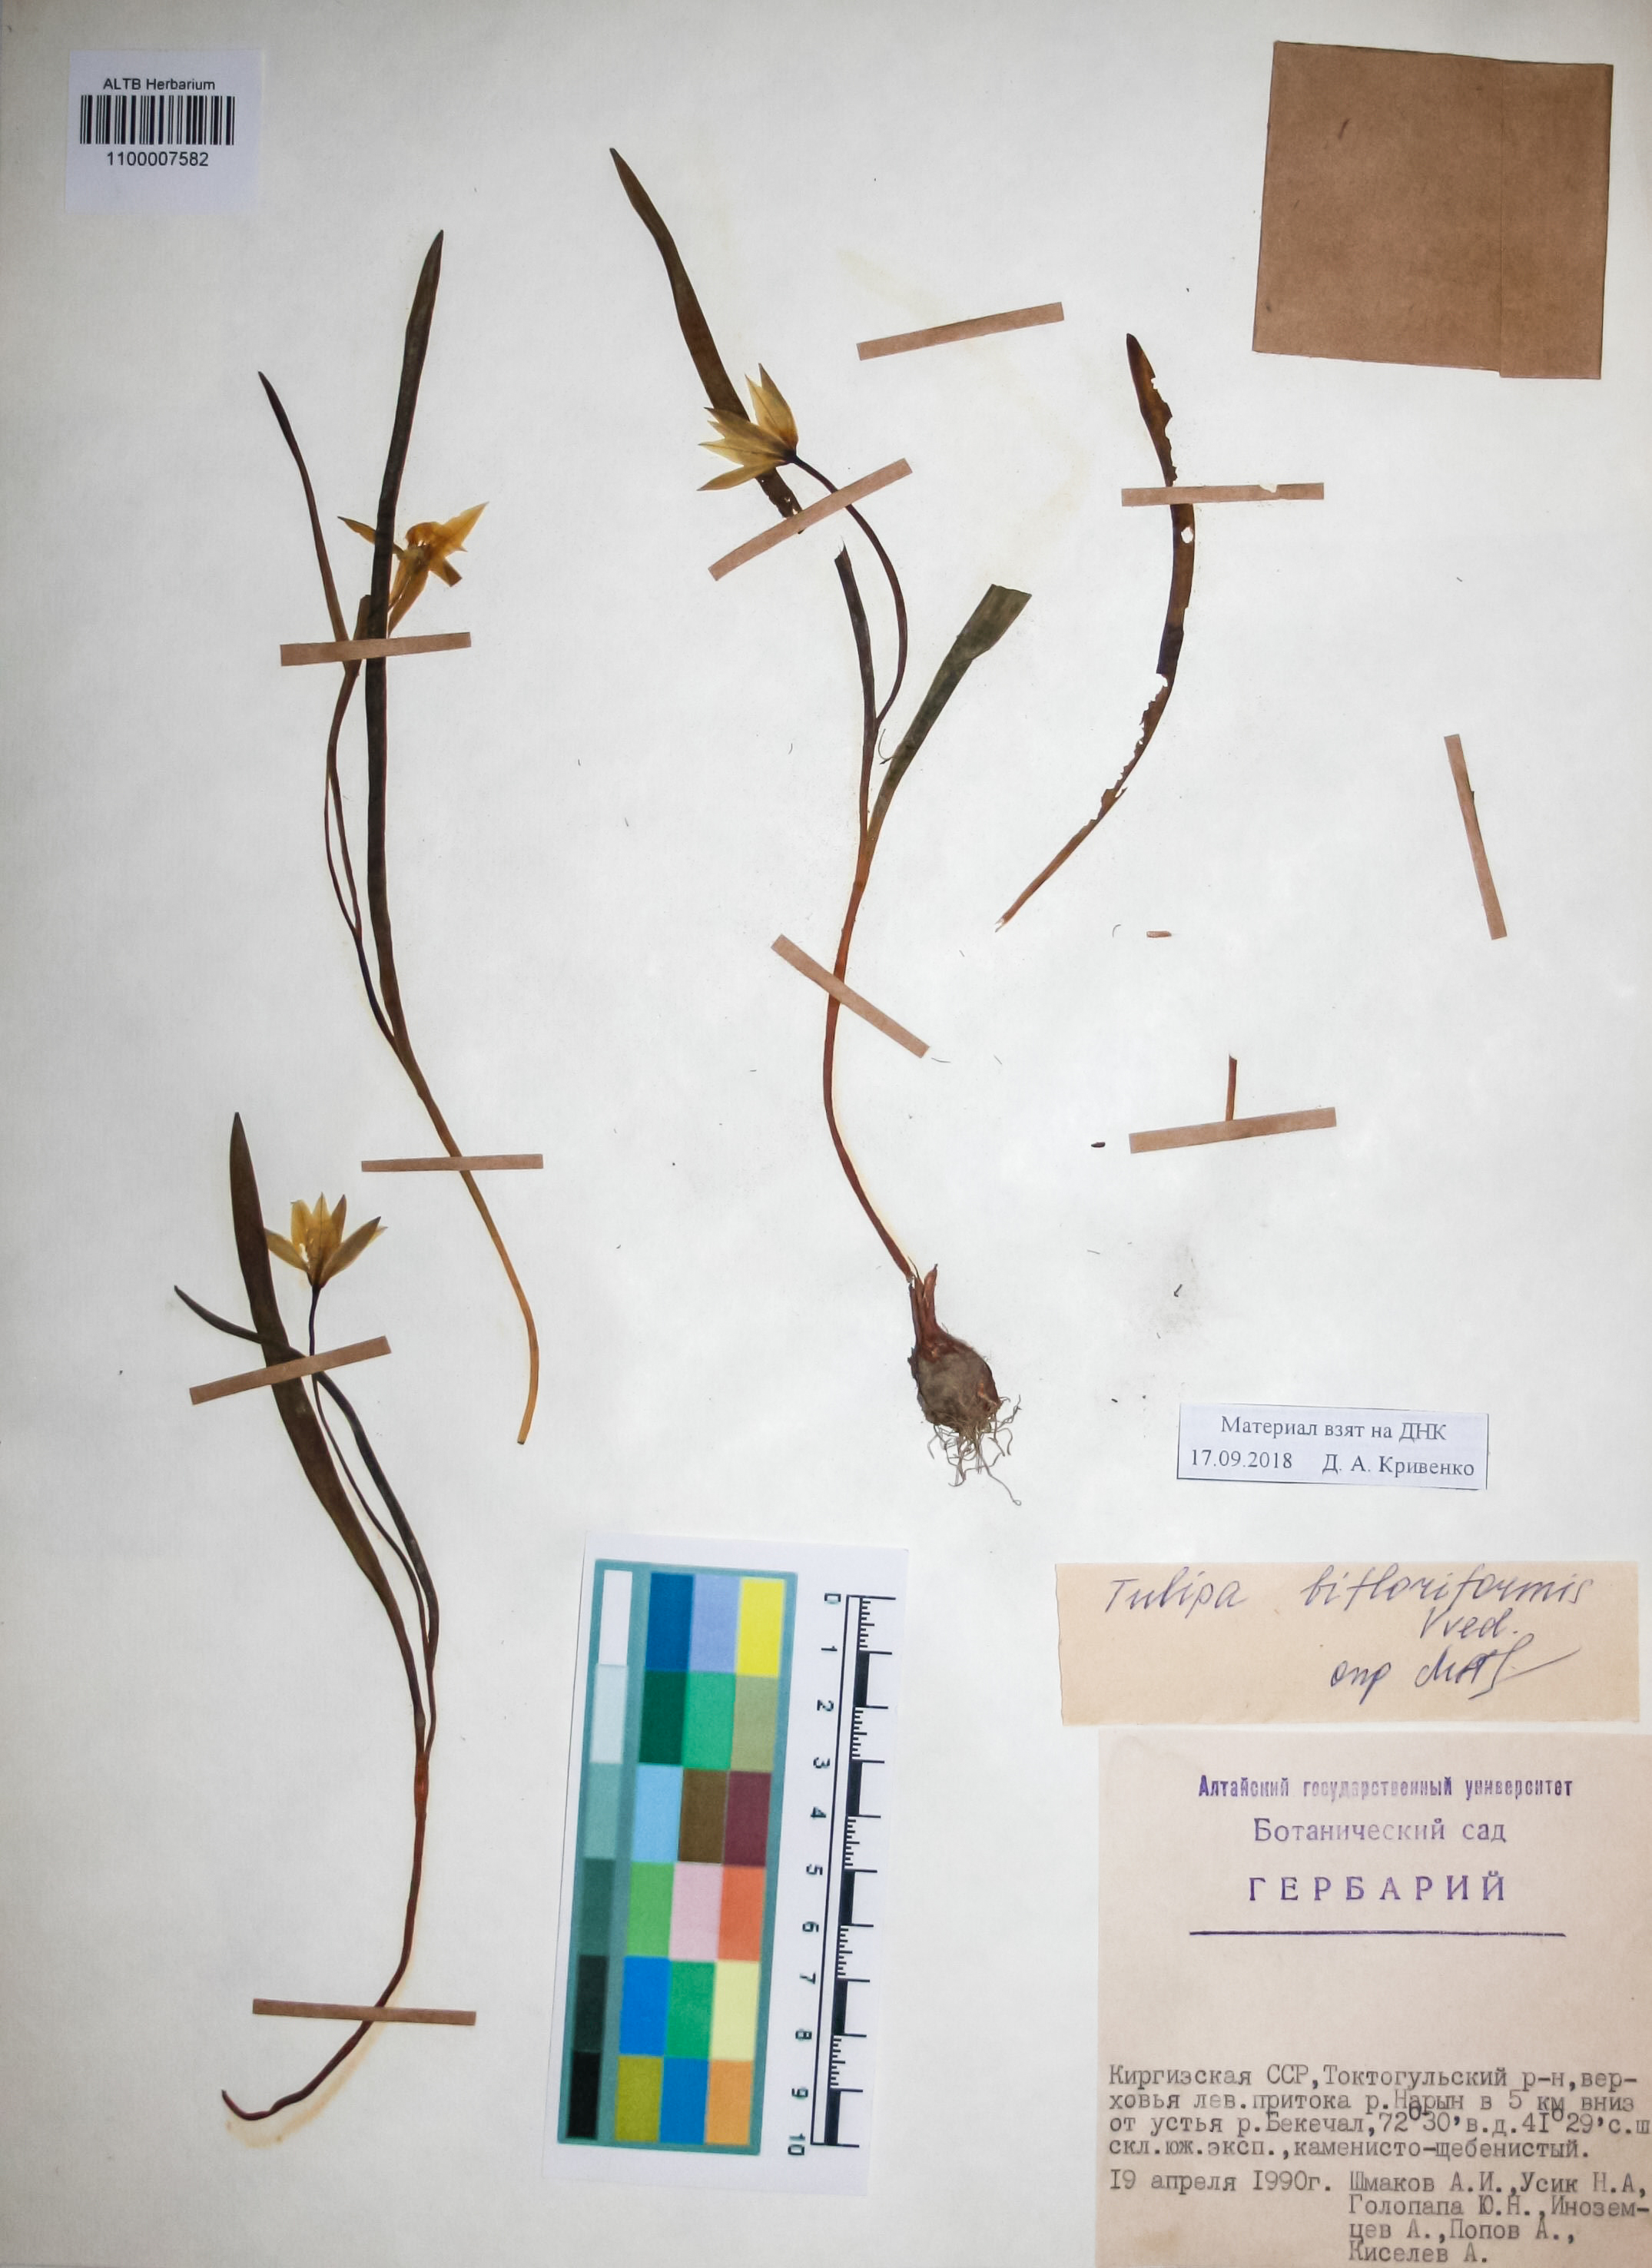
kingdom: Plantae
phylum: Tracheophyta
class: Liliopsida
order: Liliales
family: Liliaceae
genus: Tulipa
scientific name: Tulipa bifloriformis
